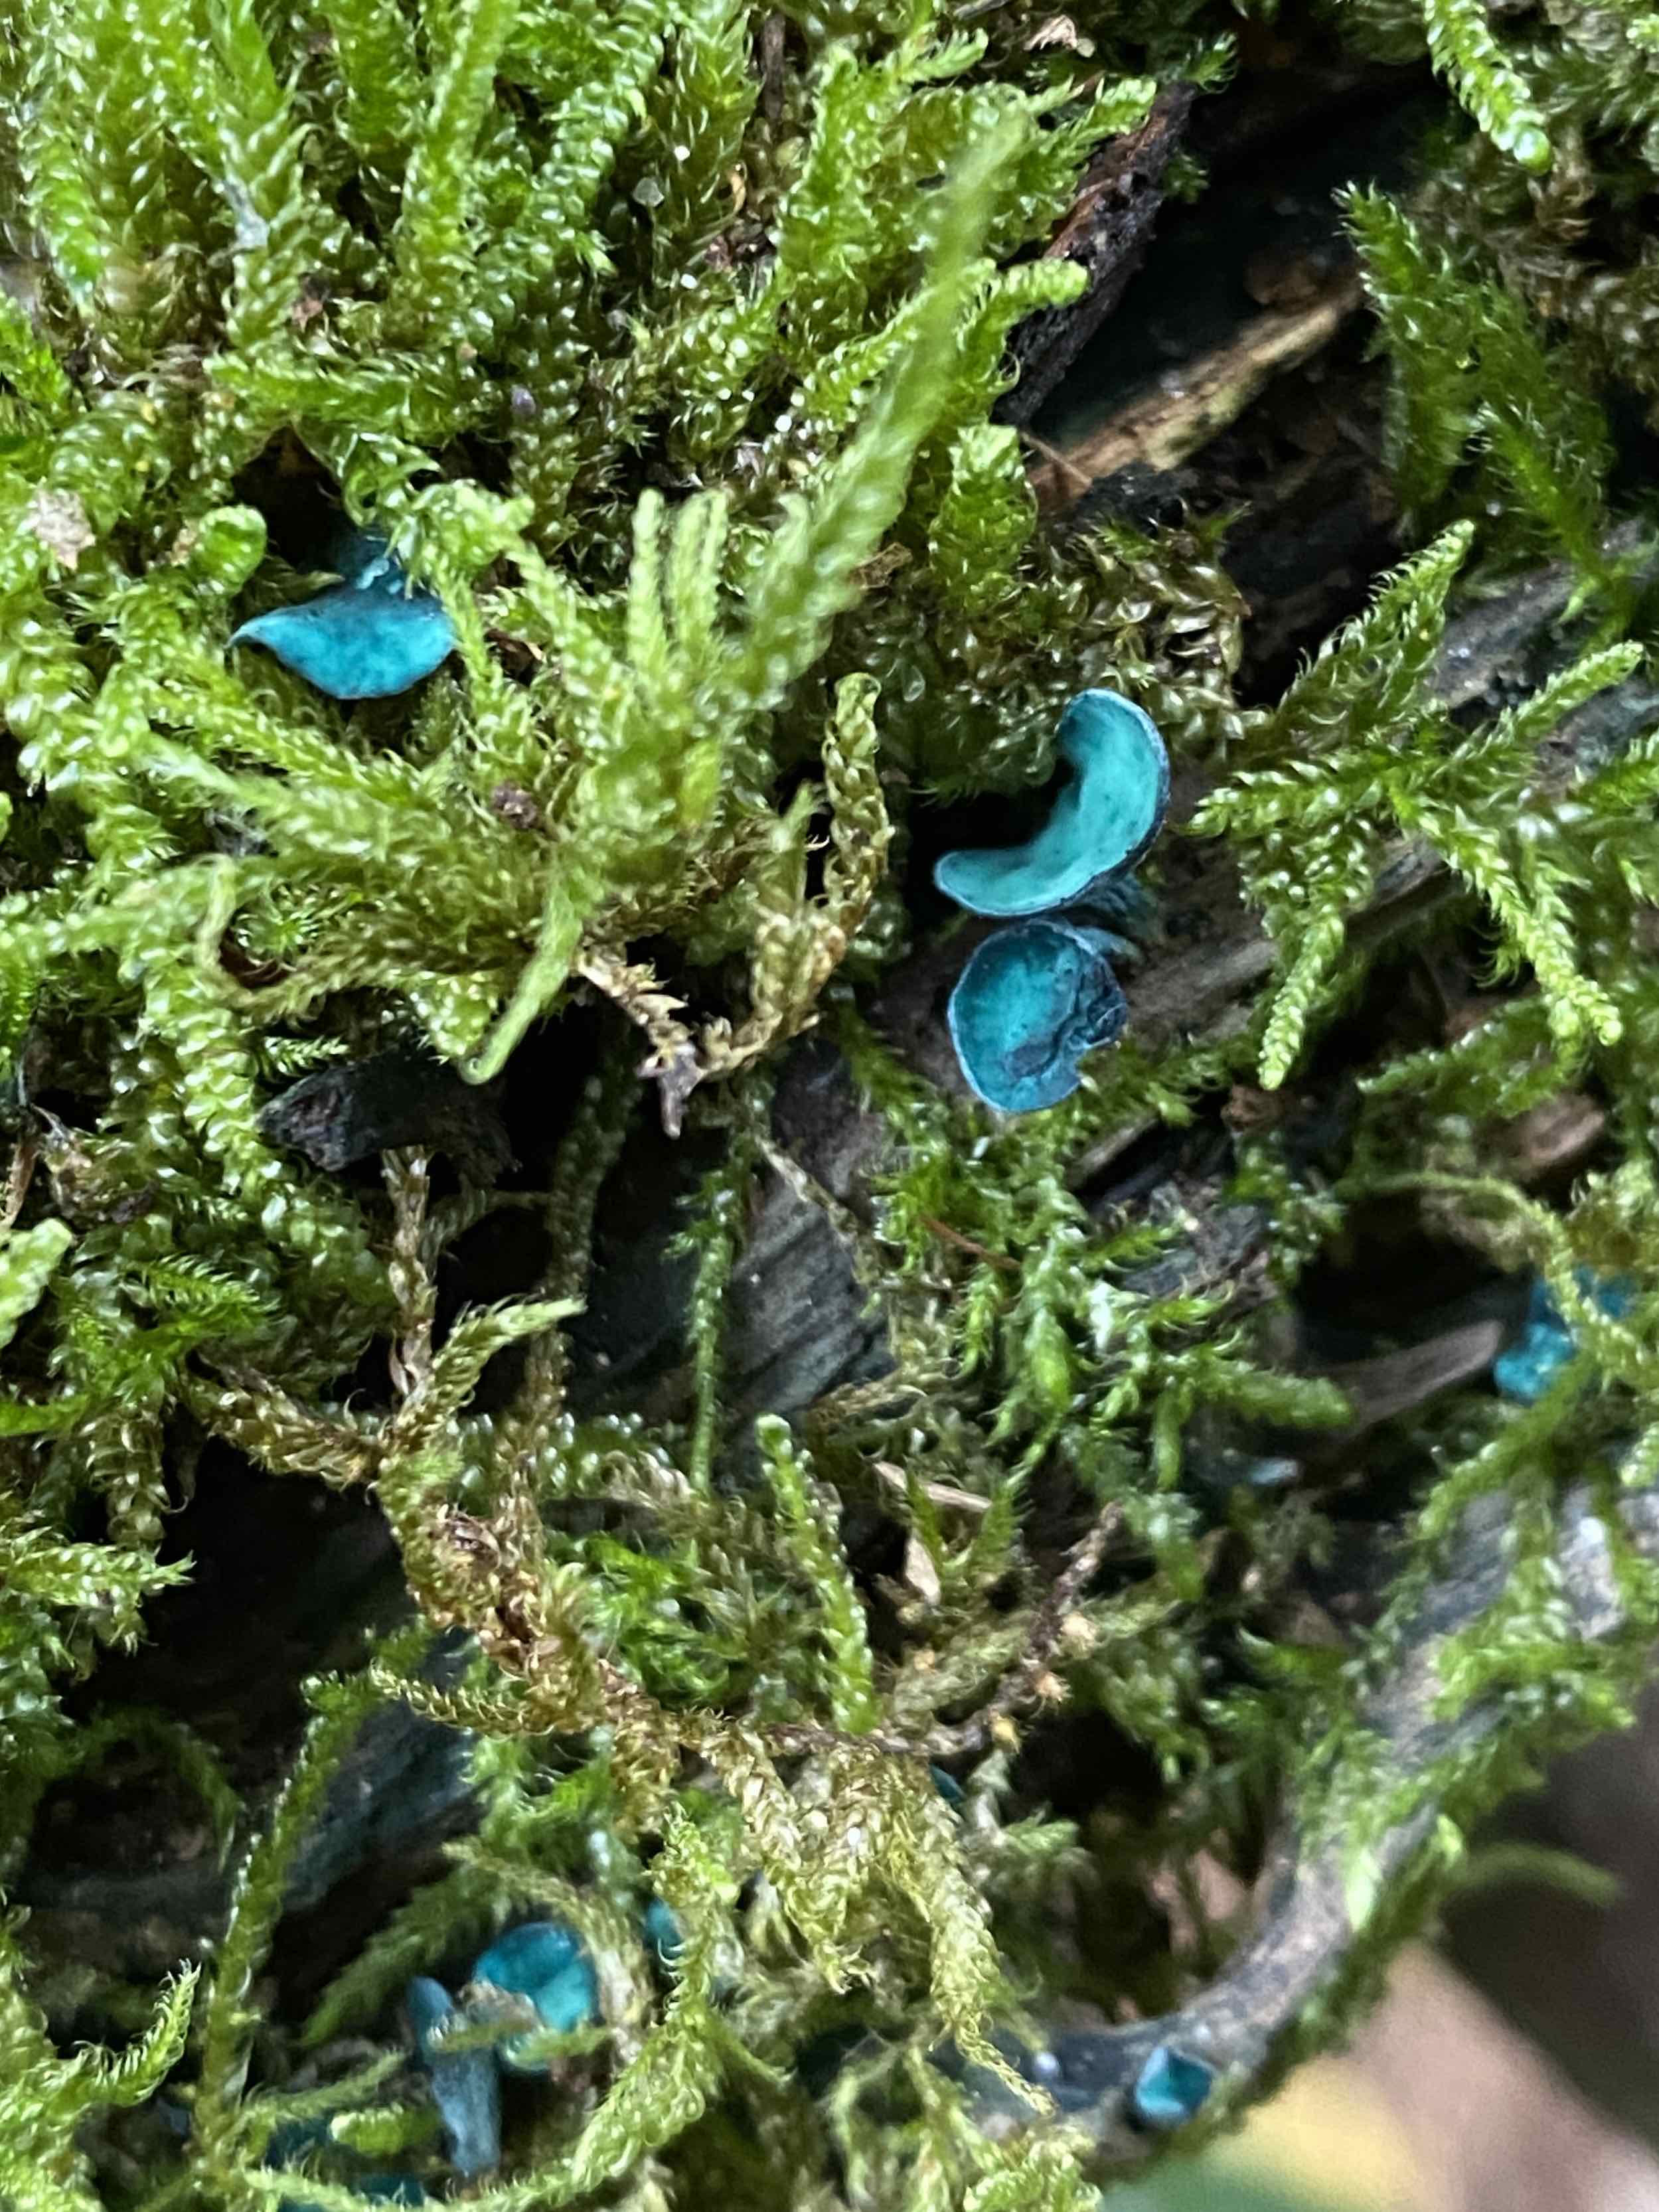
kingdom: Fungi
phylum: Ascomycota
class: Leotiomycetes
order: Helotiales
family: Chlorociboriaceae
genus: Chlorociboria
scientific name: Chlorociboria aeruginascens
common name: almindelig grønskive
